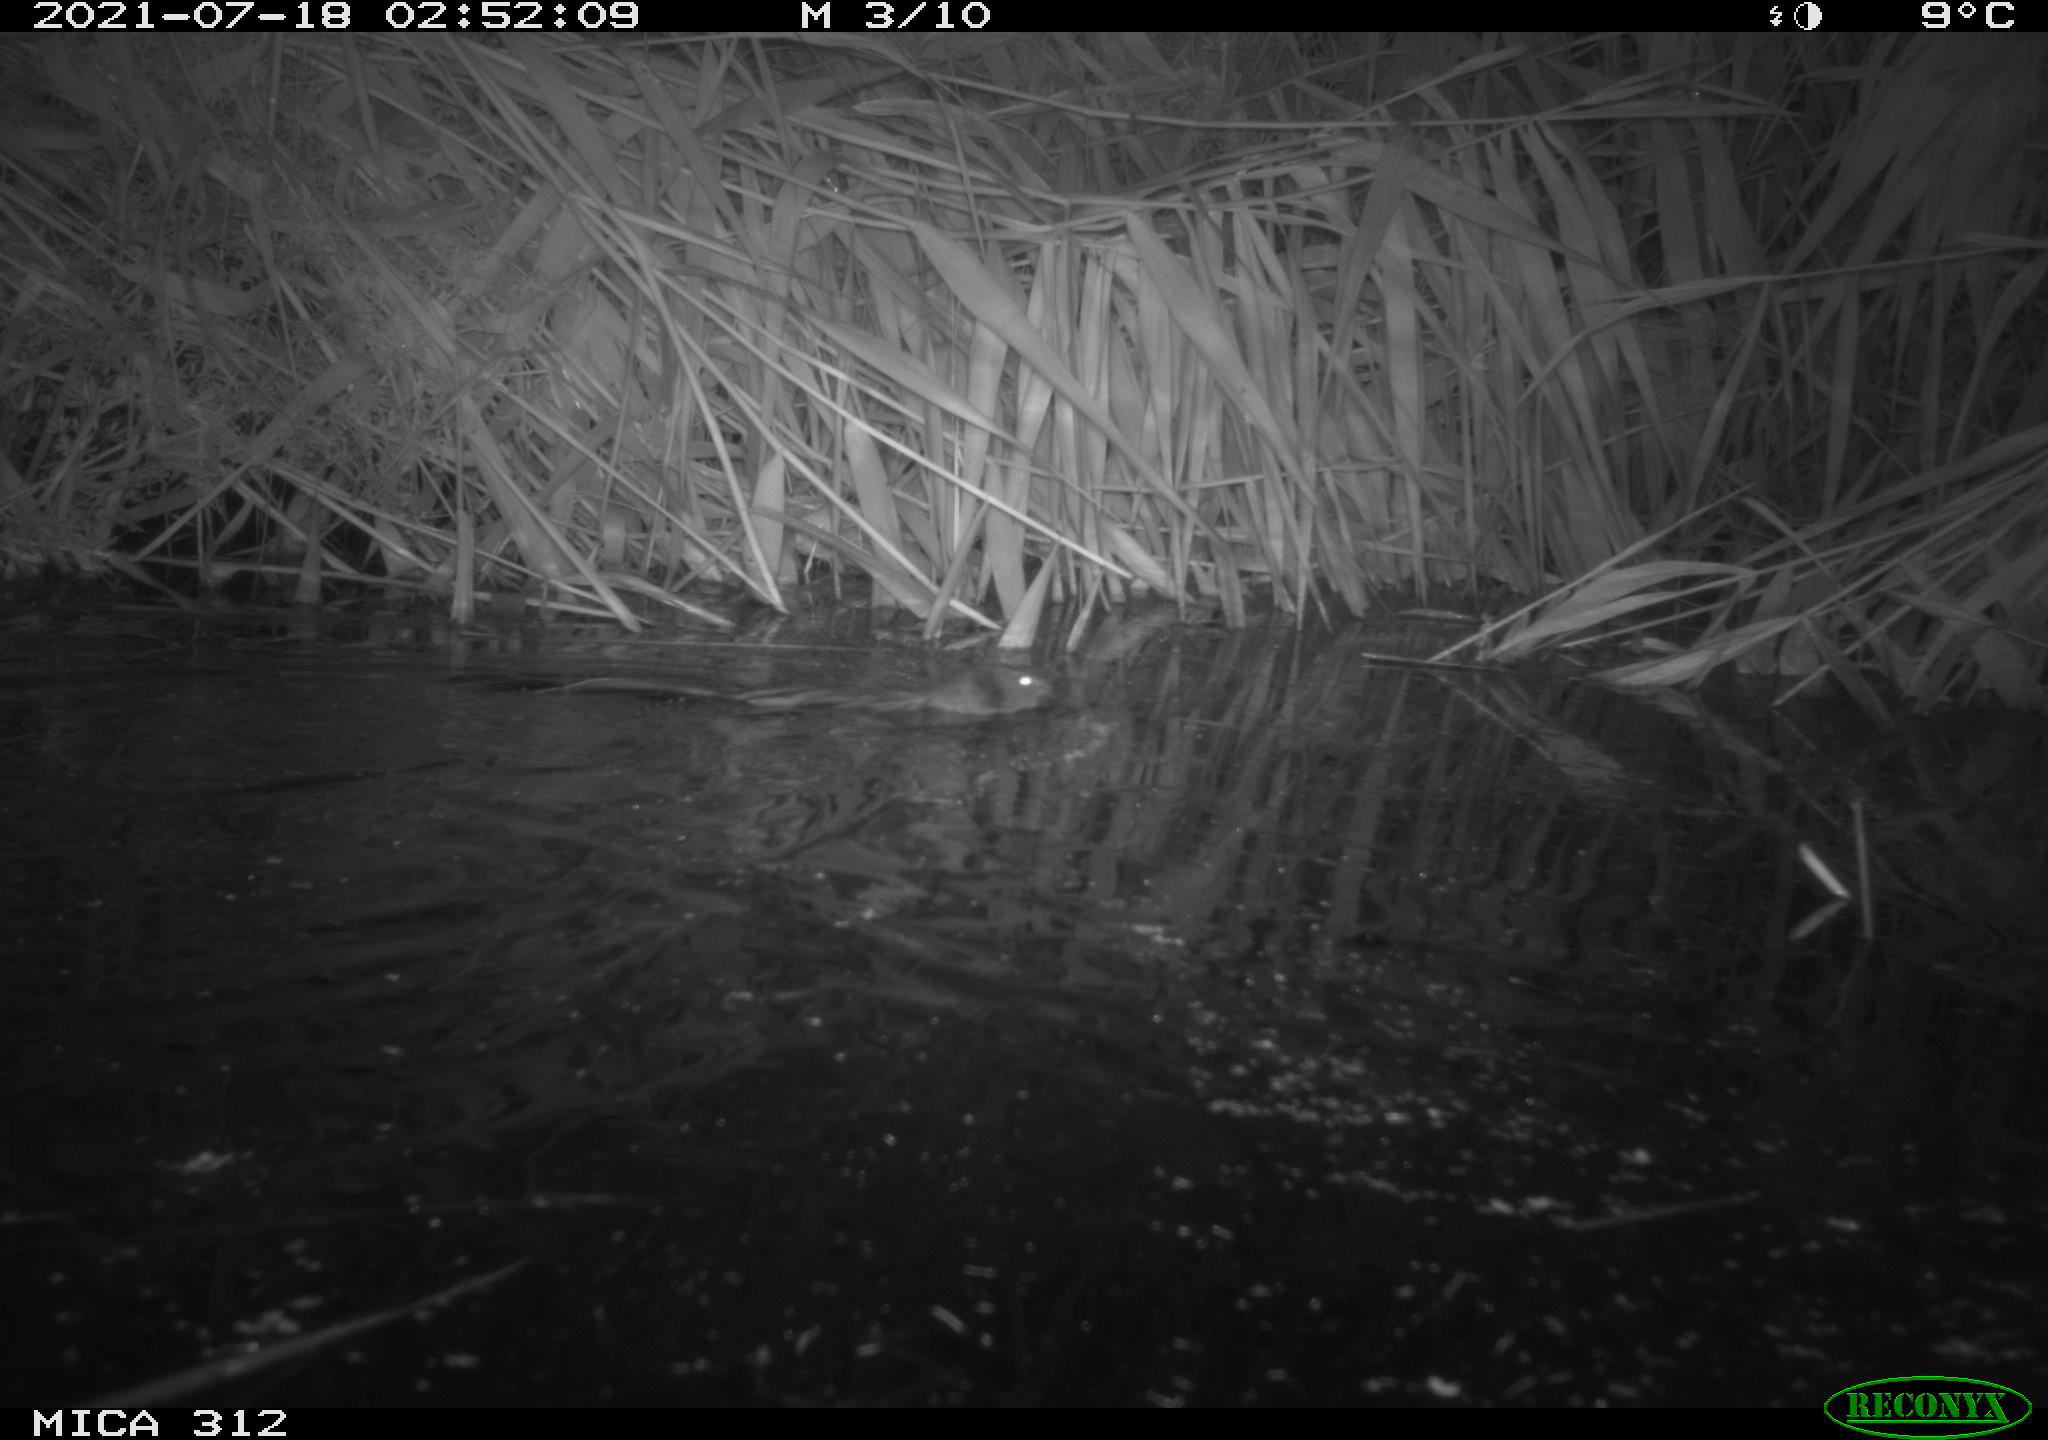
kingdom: Animalia
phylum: Chordata
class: Mammalia
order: Rodentia
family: Cricetidae
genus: Ondatra
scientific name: Ondatra zibethicus
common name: Muskrat
